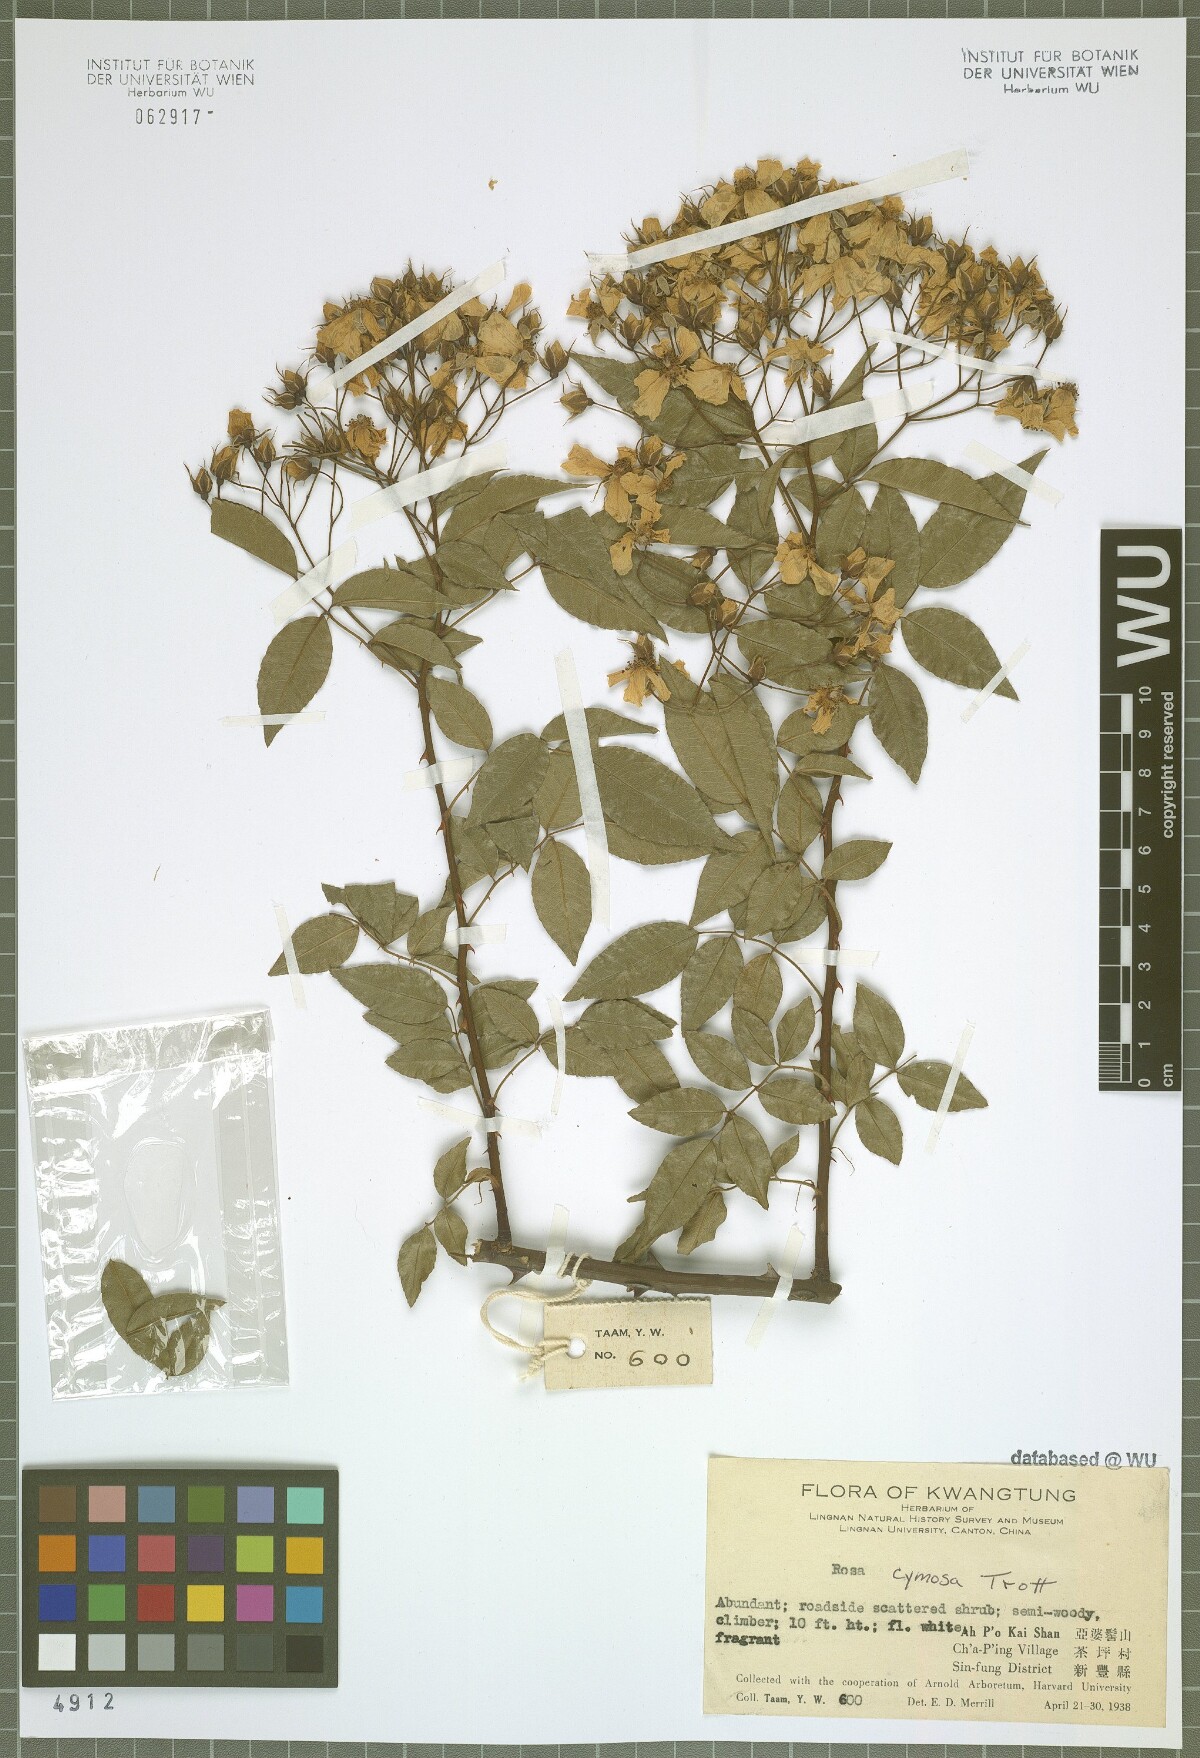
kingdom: Plantae
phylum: Tracheophyta
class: Magnoliopsida
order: Rosales
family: Rosaceae
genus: Rosa
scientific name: Rosa indica
